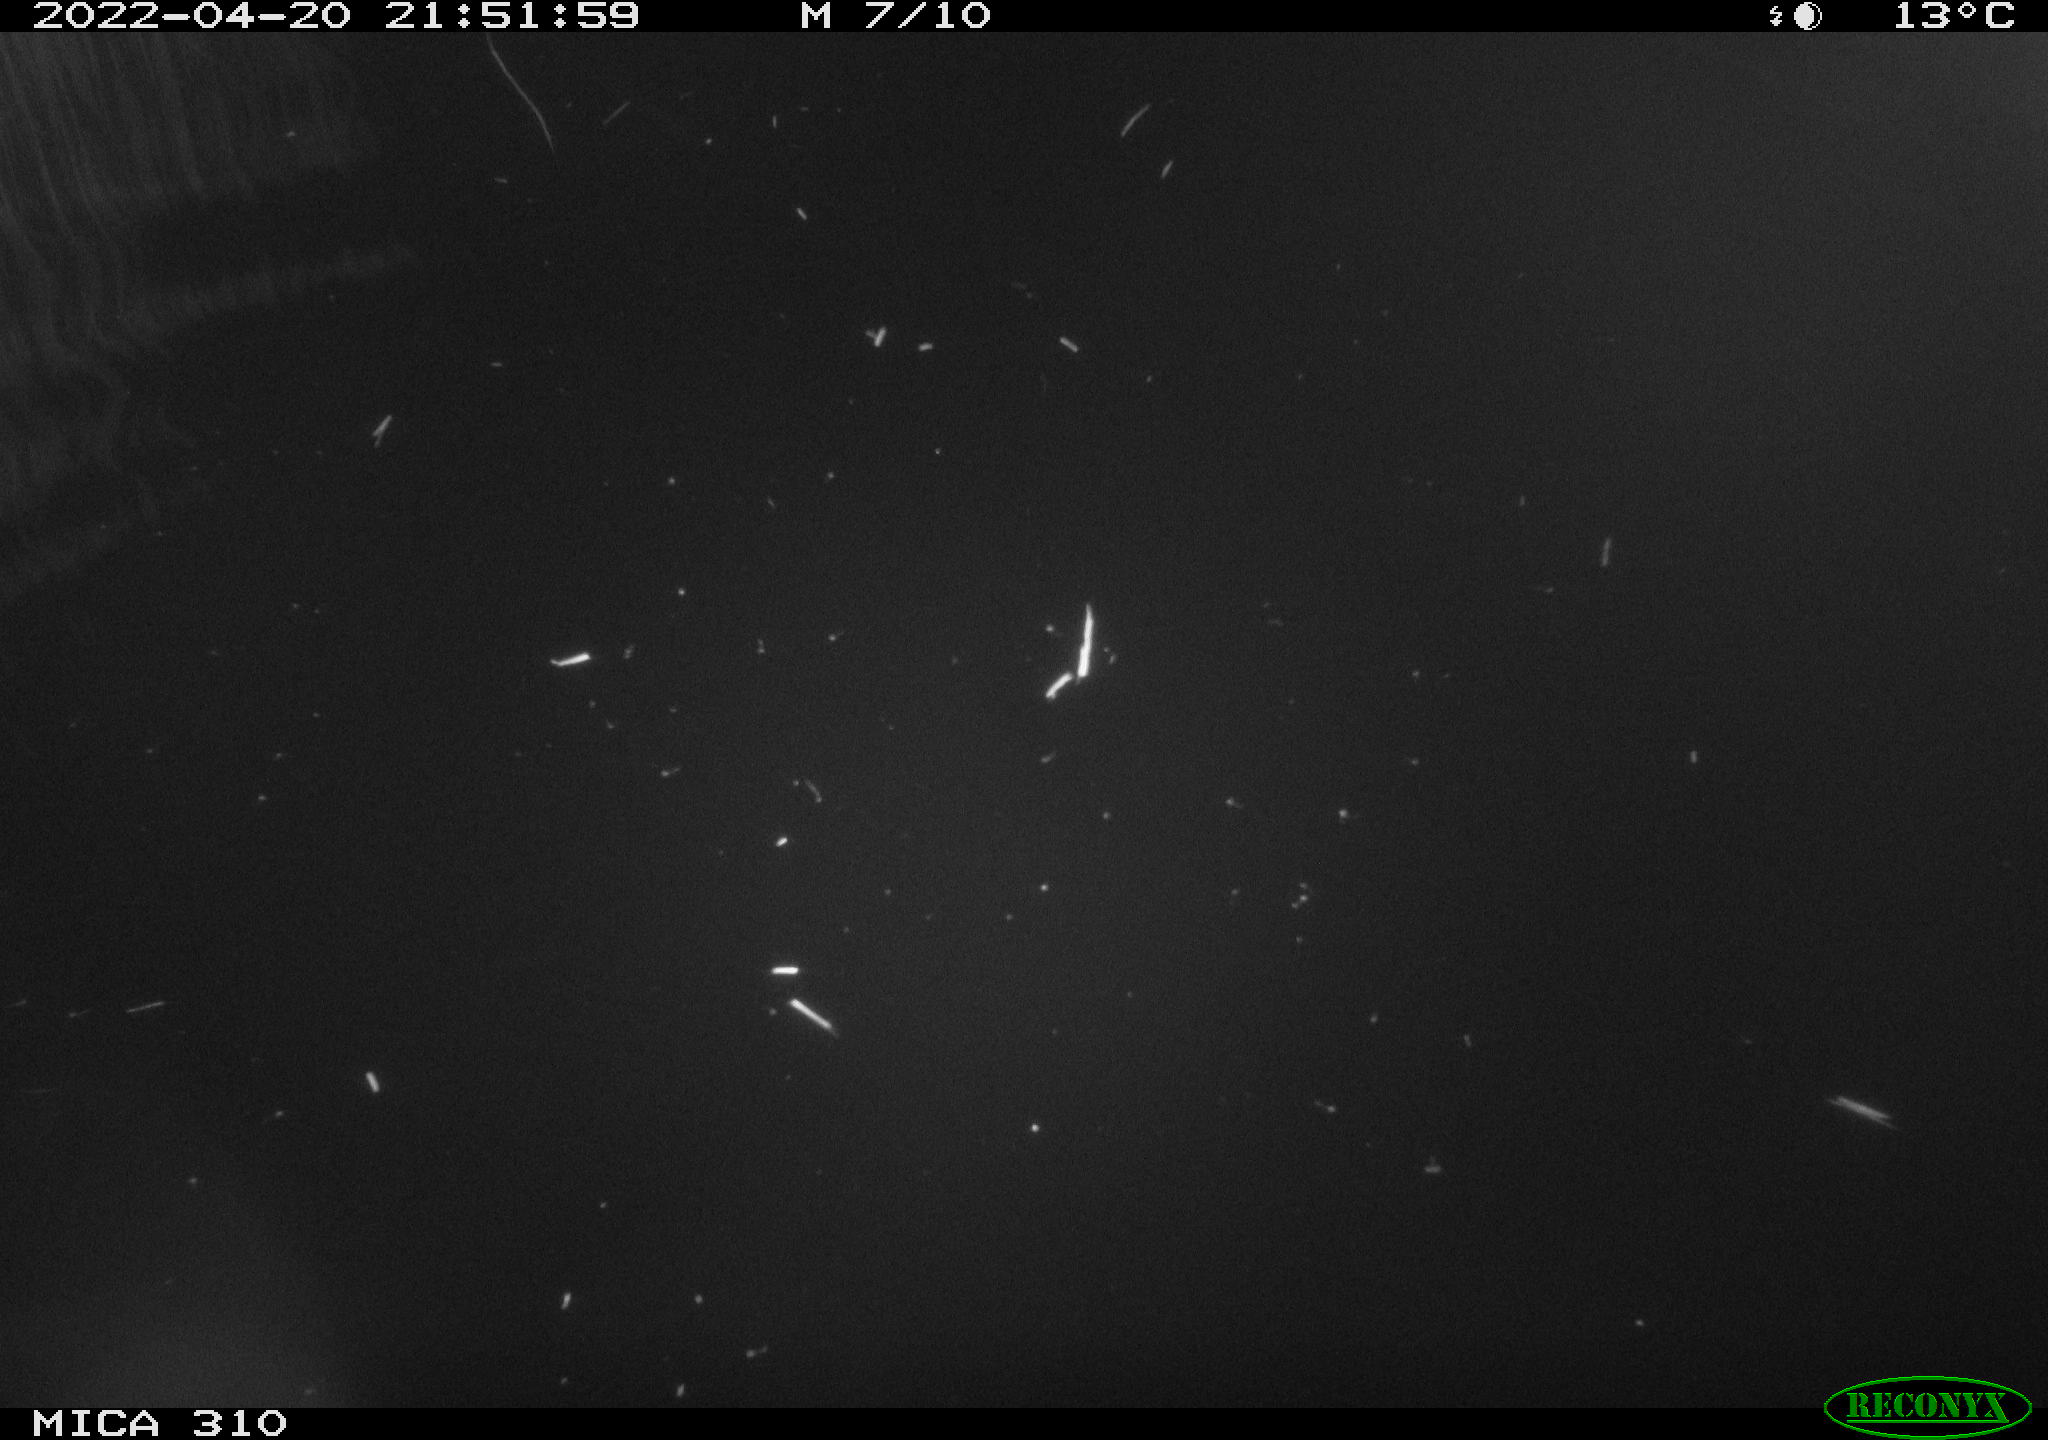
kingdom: Animalia
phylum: Chordata
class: Aves
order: Anseriformes
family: Anatidae
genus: Anas
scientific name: Anas platyrhynchos
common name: Mallard
